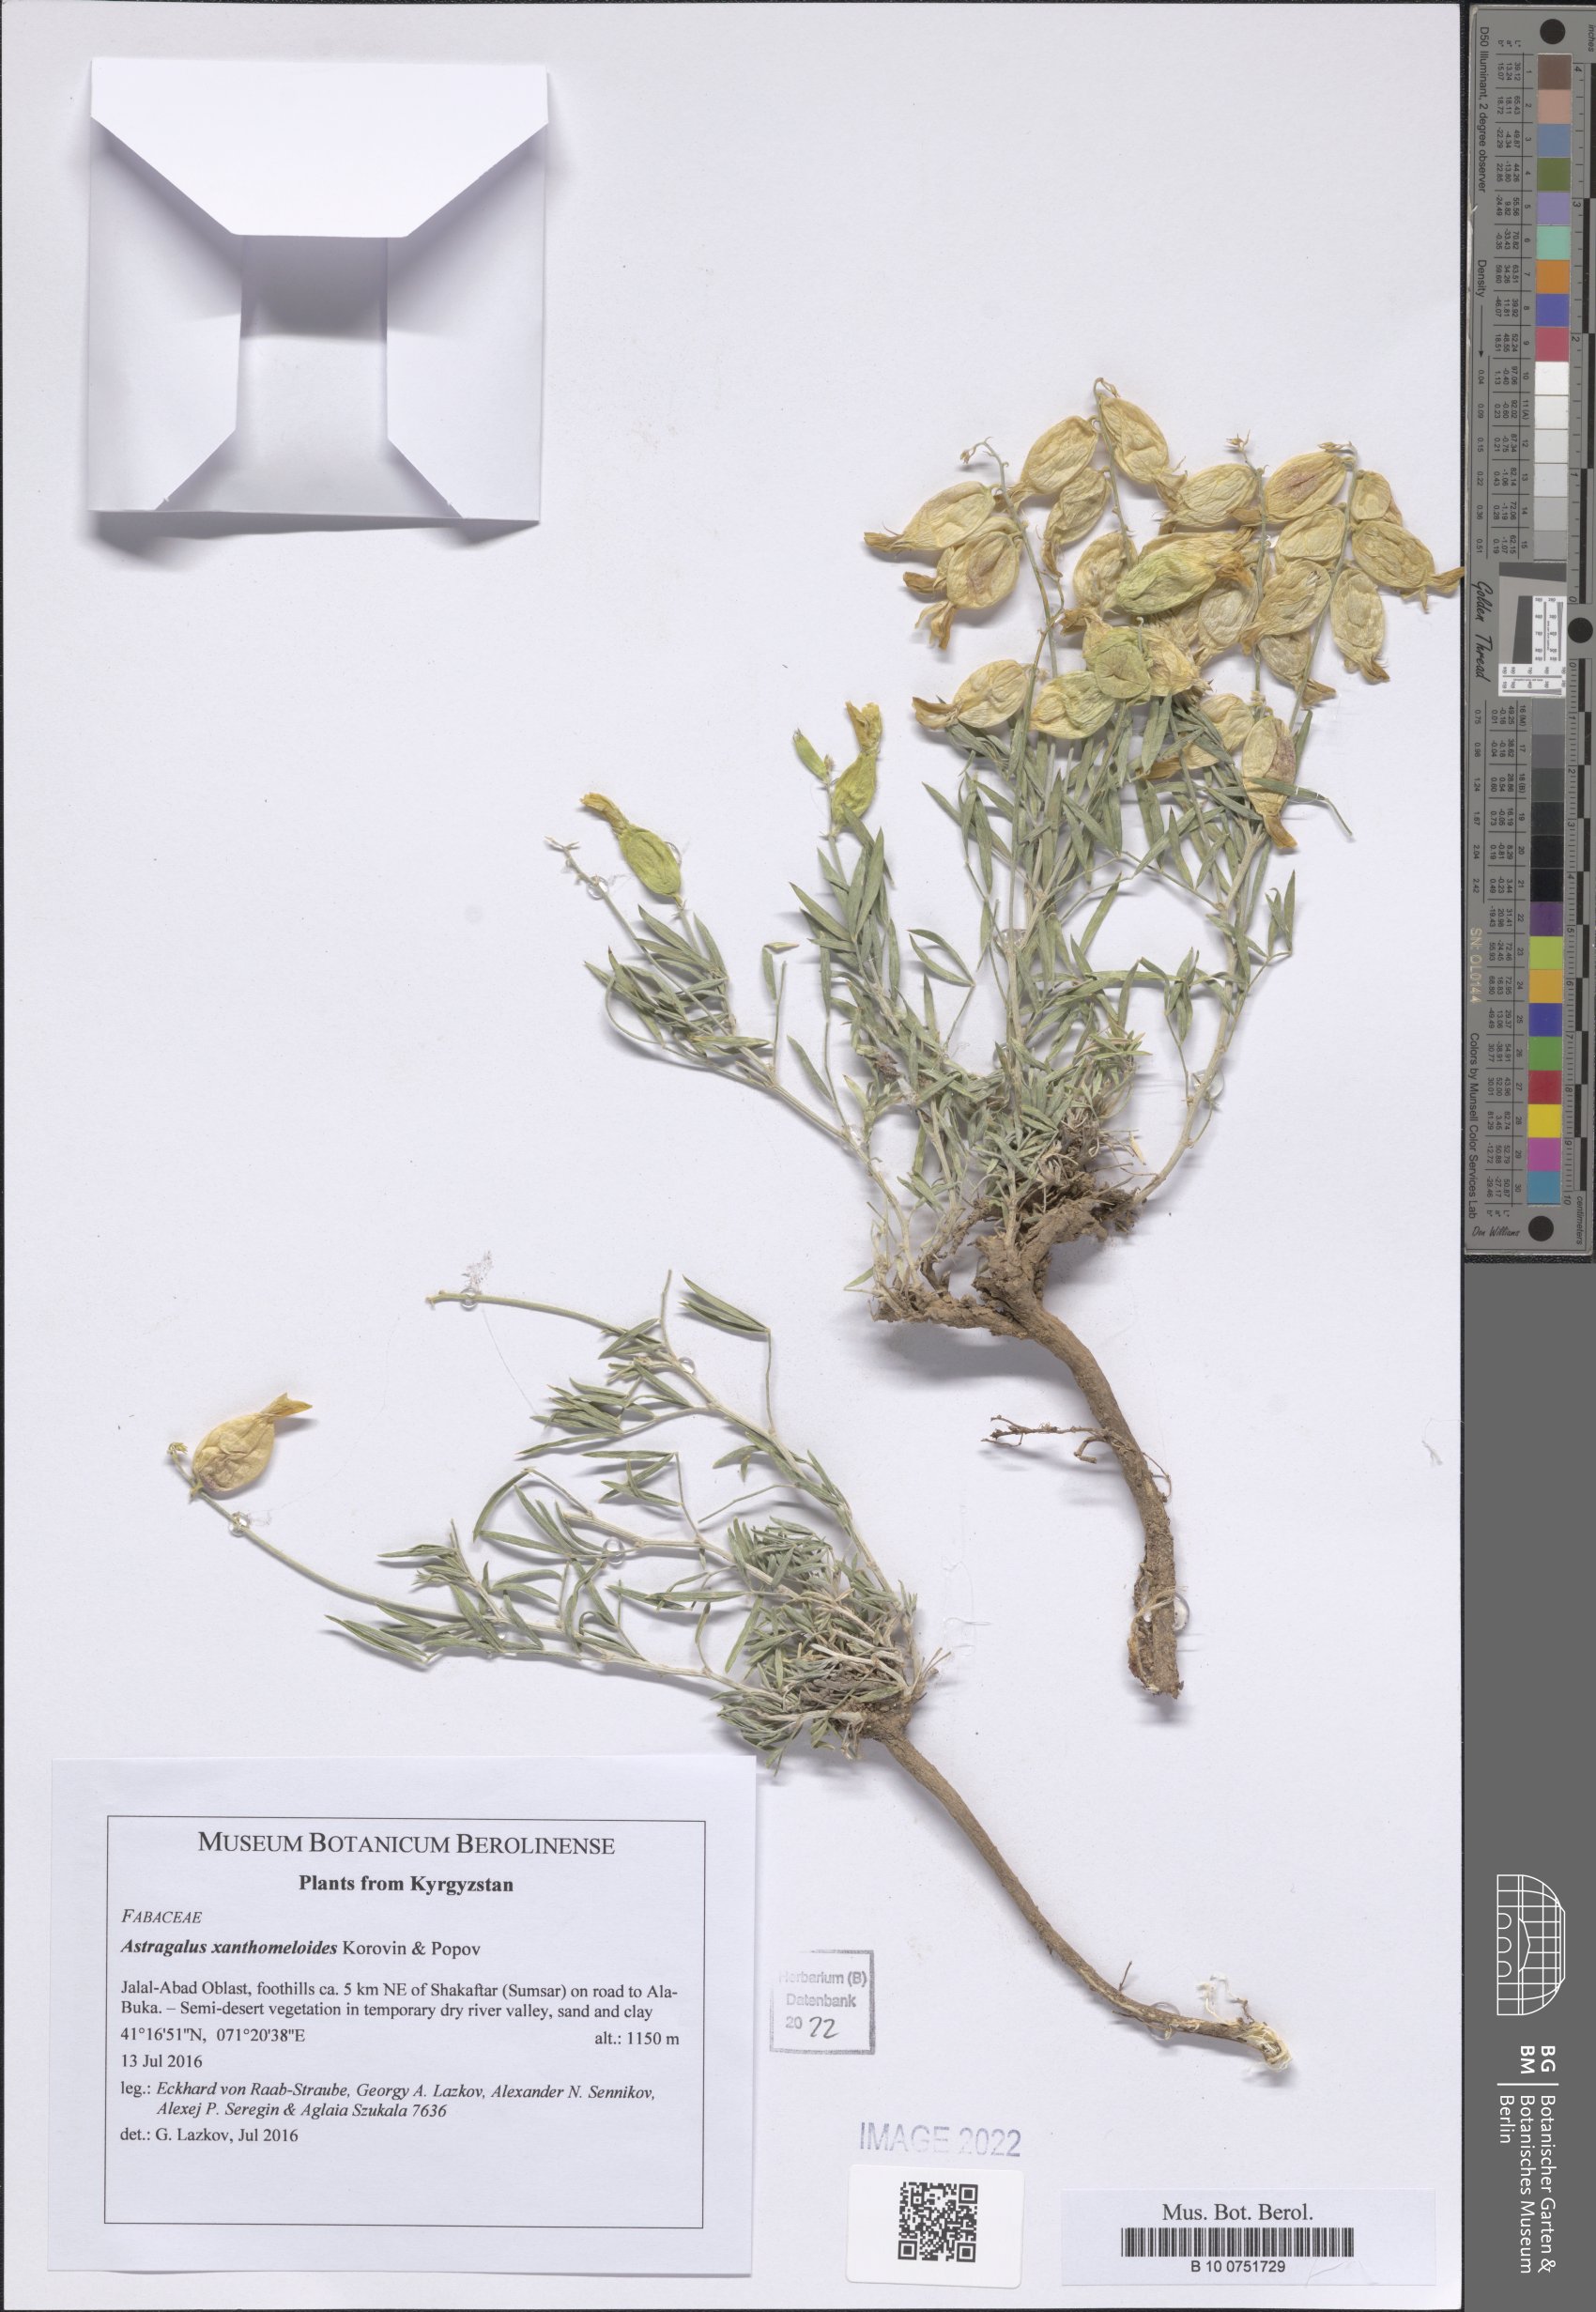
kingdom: Plantae
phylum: Tracheophyta
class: Magnoliopsida
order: Fabales
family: Fabaceae
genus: Astragalus
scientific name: Astragalus xanthomeloides
